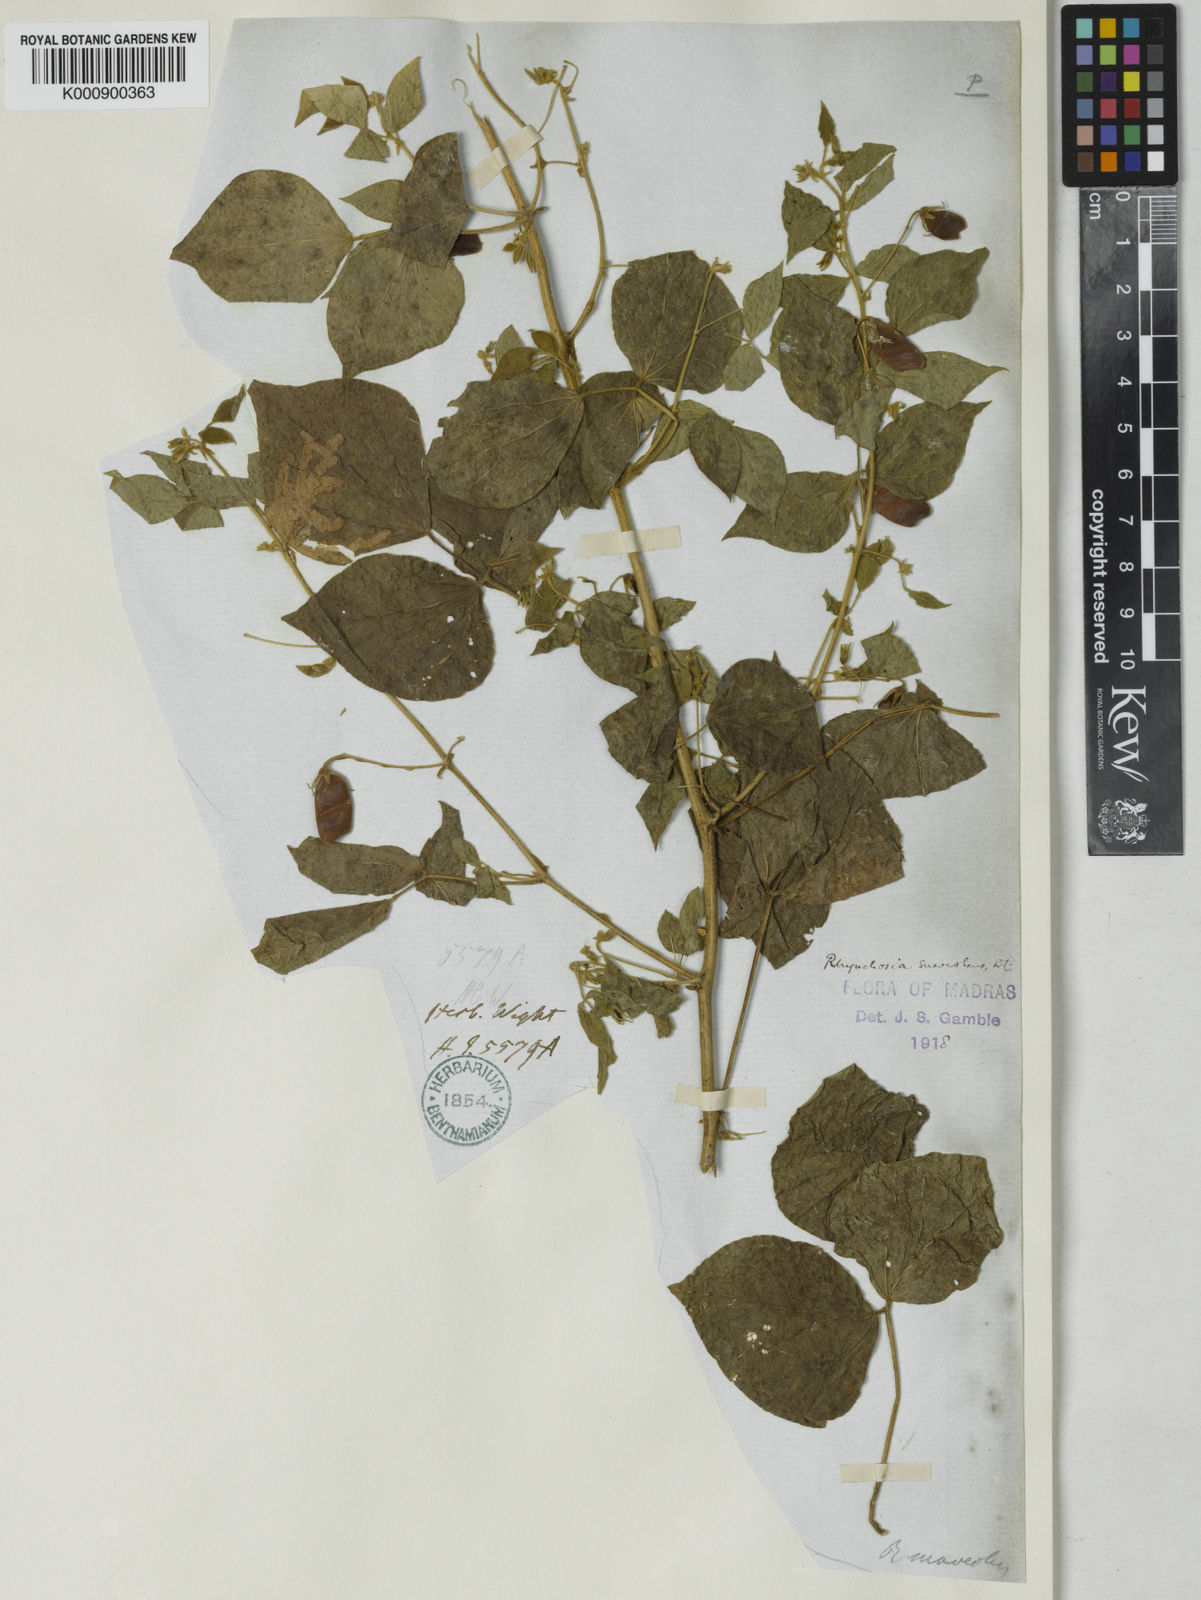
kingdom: Plantae
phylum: Tracheophyta
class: Magnoliopsida
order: Fabales
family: Fabaceae
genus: Rhynchosia
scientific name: Rhynchosia suaveolens
